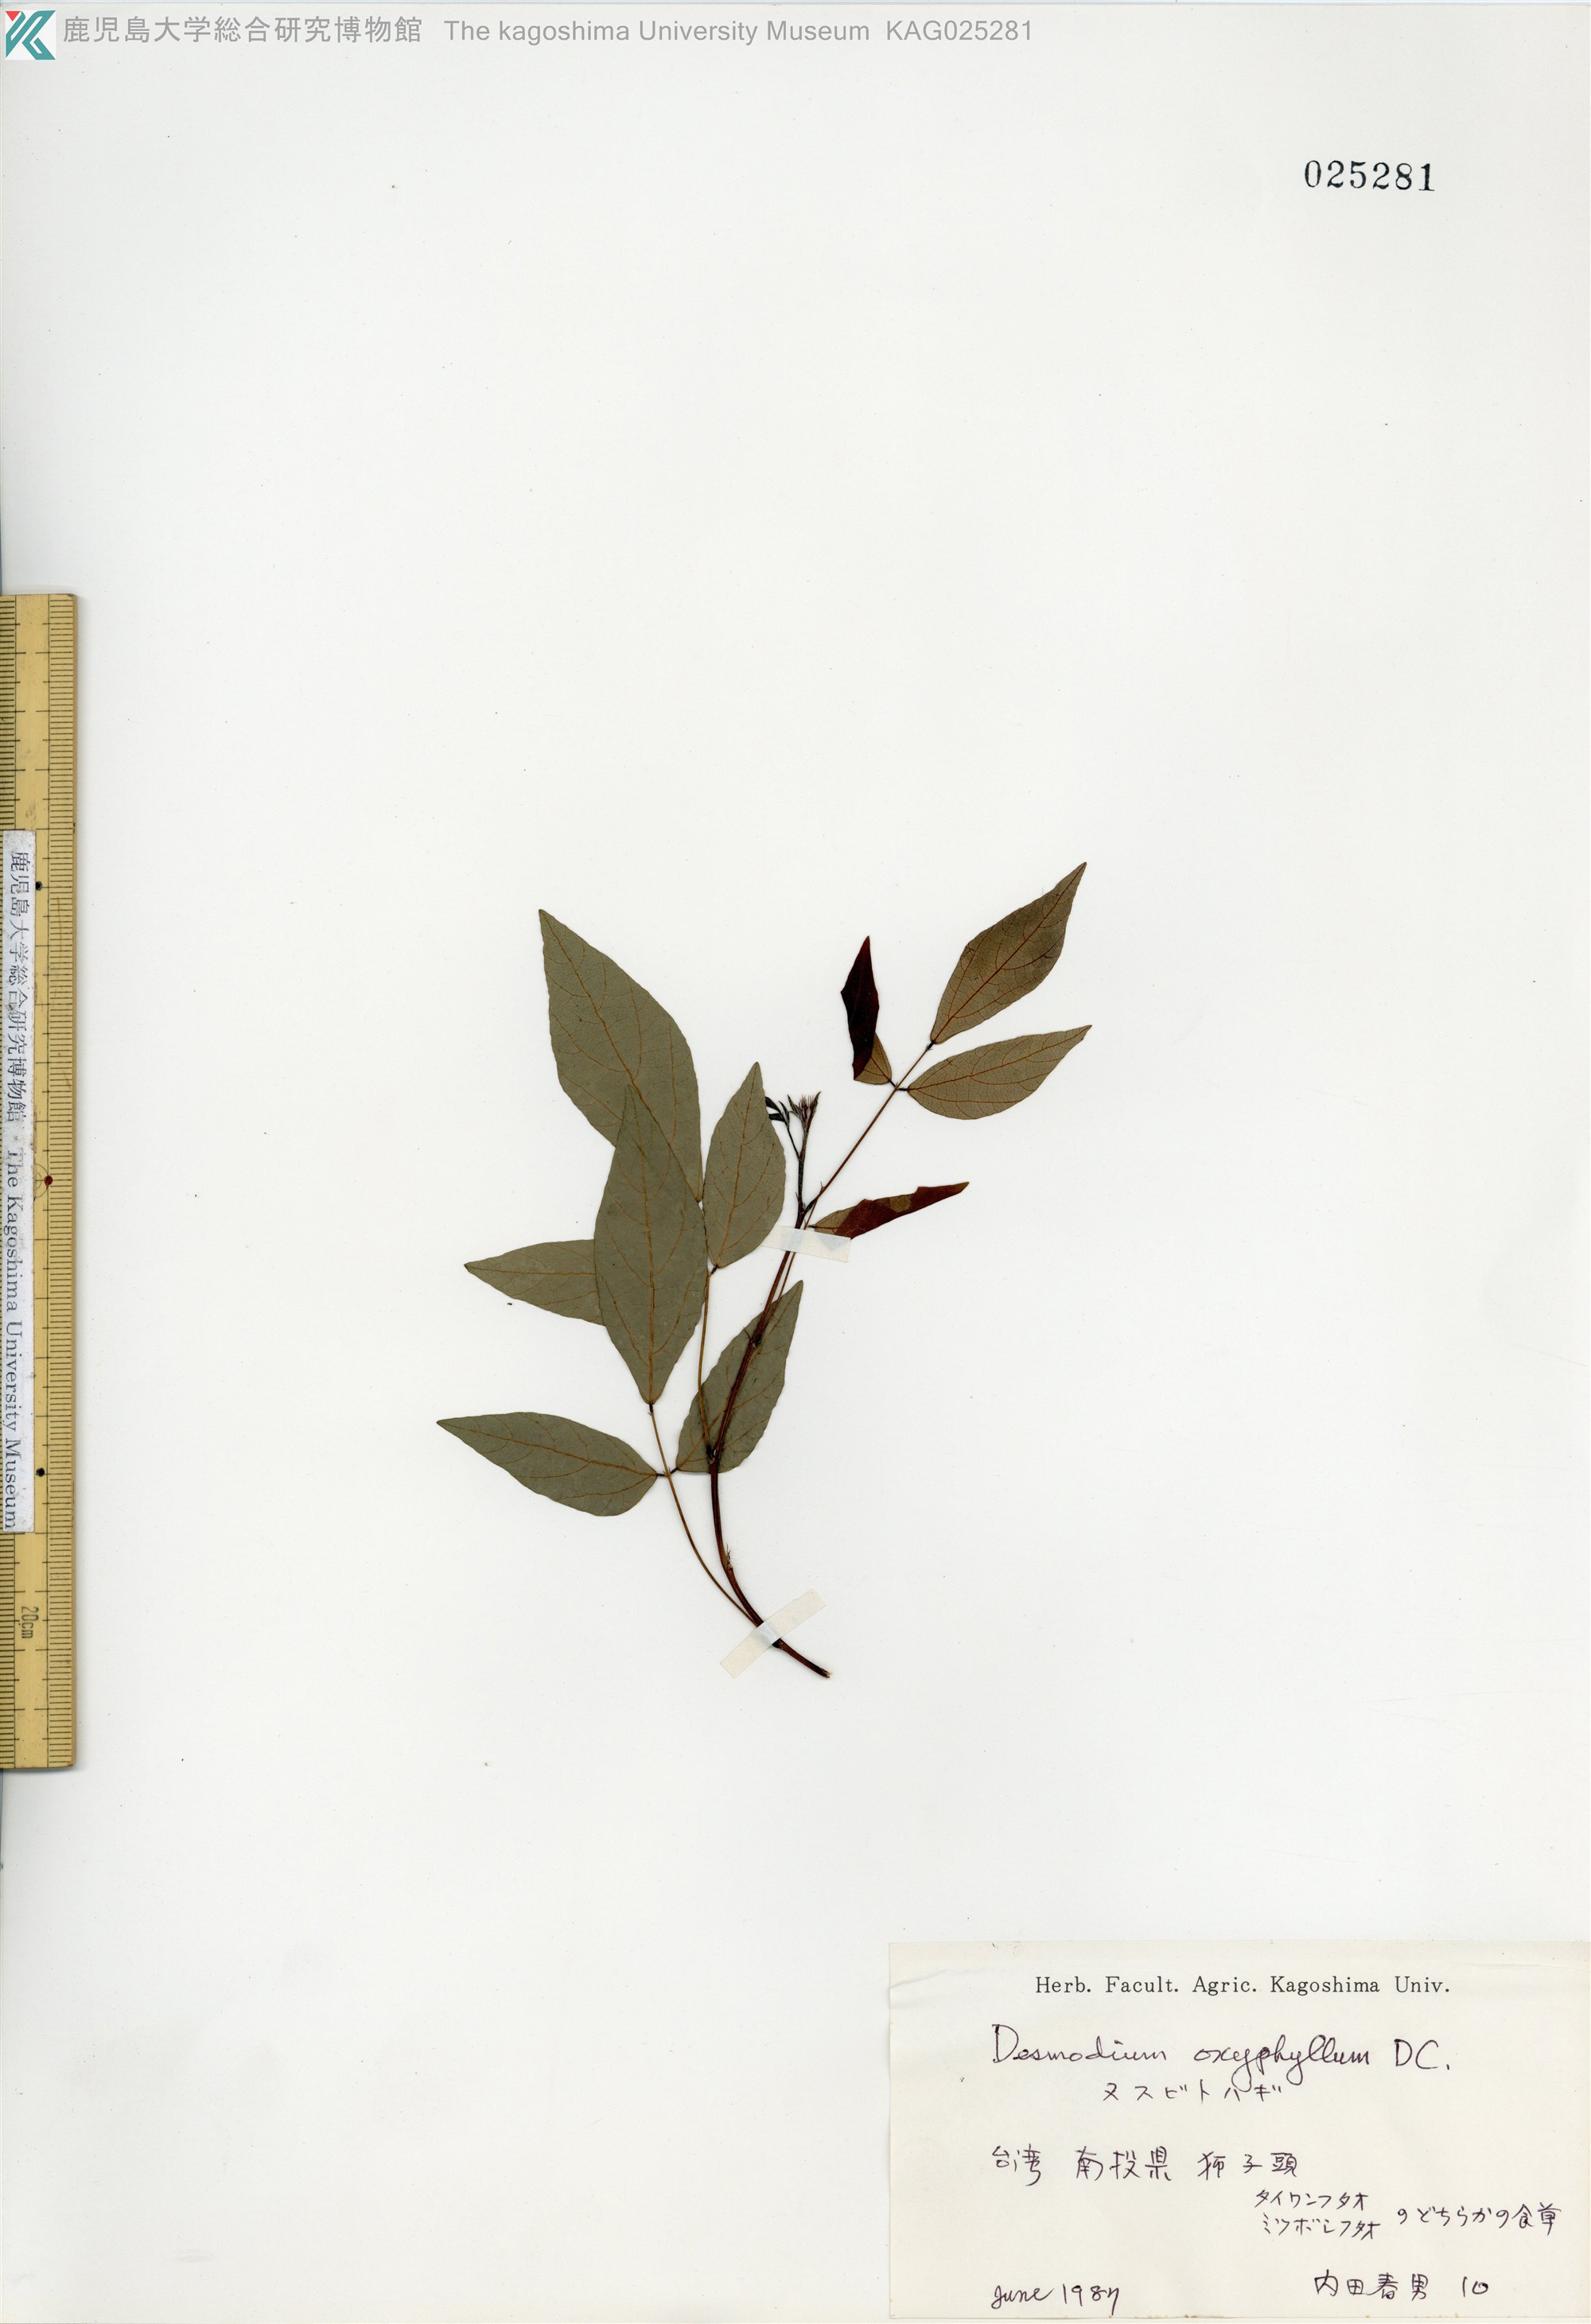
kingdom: Plantae
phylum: Tracheophyta
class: Magnoliopsida
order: Fabales
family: Fabaceae
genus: Hylodesmum
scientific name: Hylodesmum podocarpum
